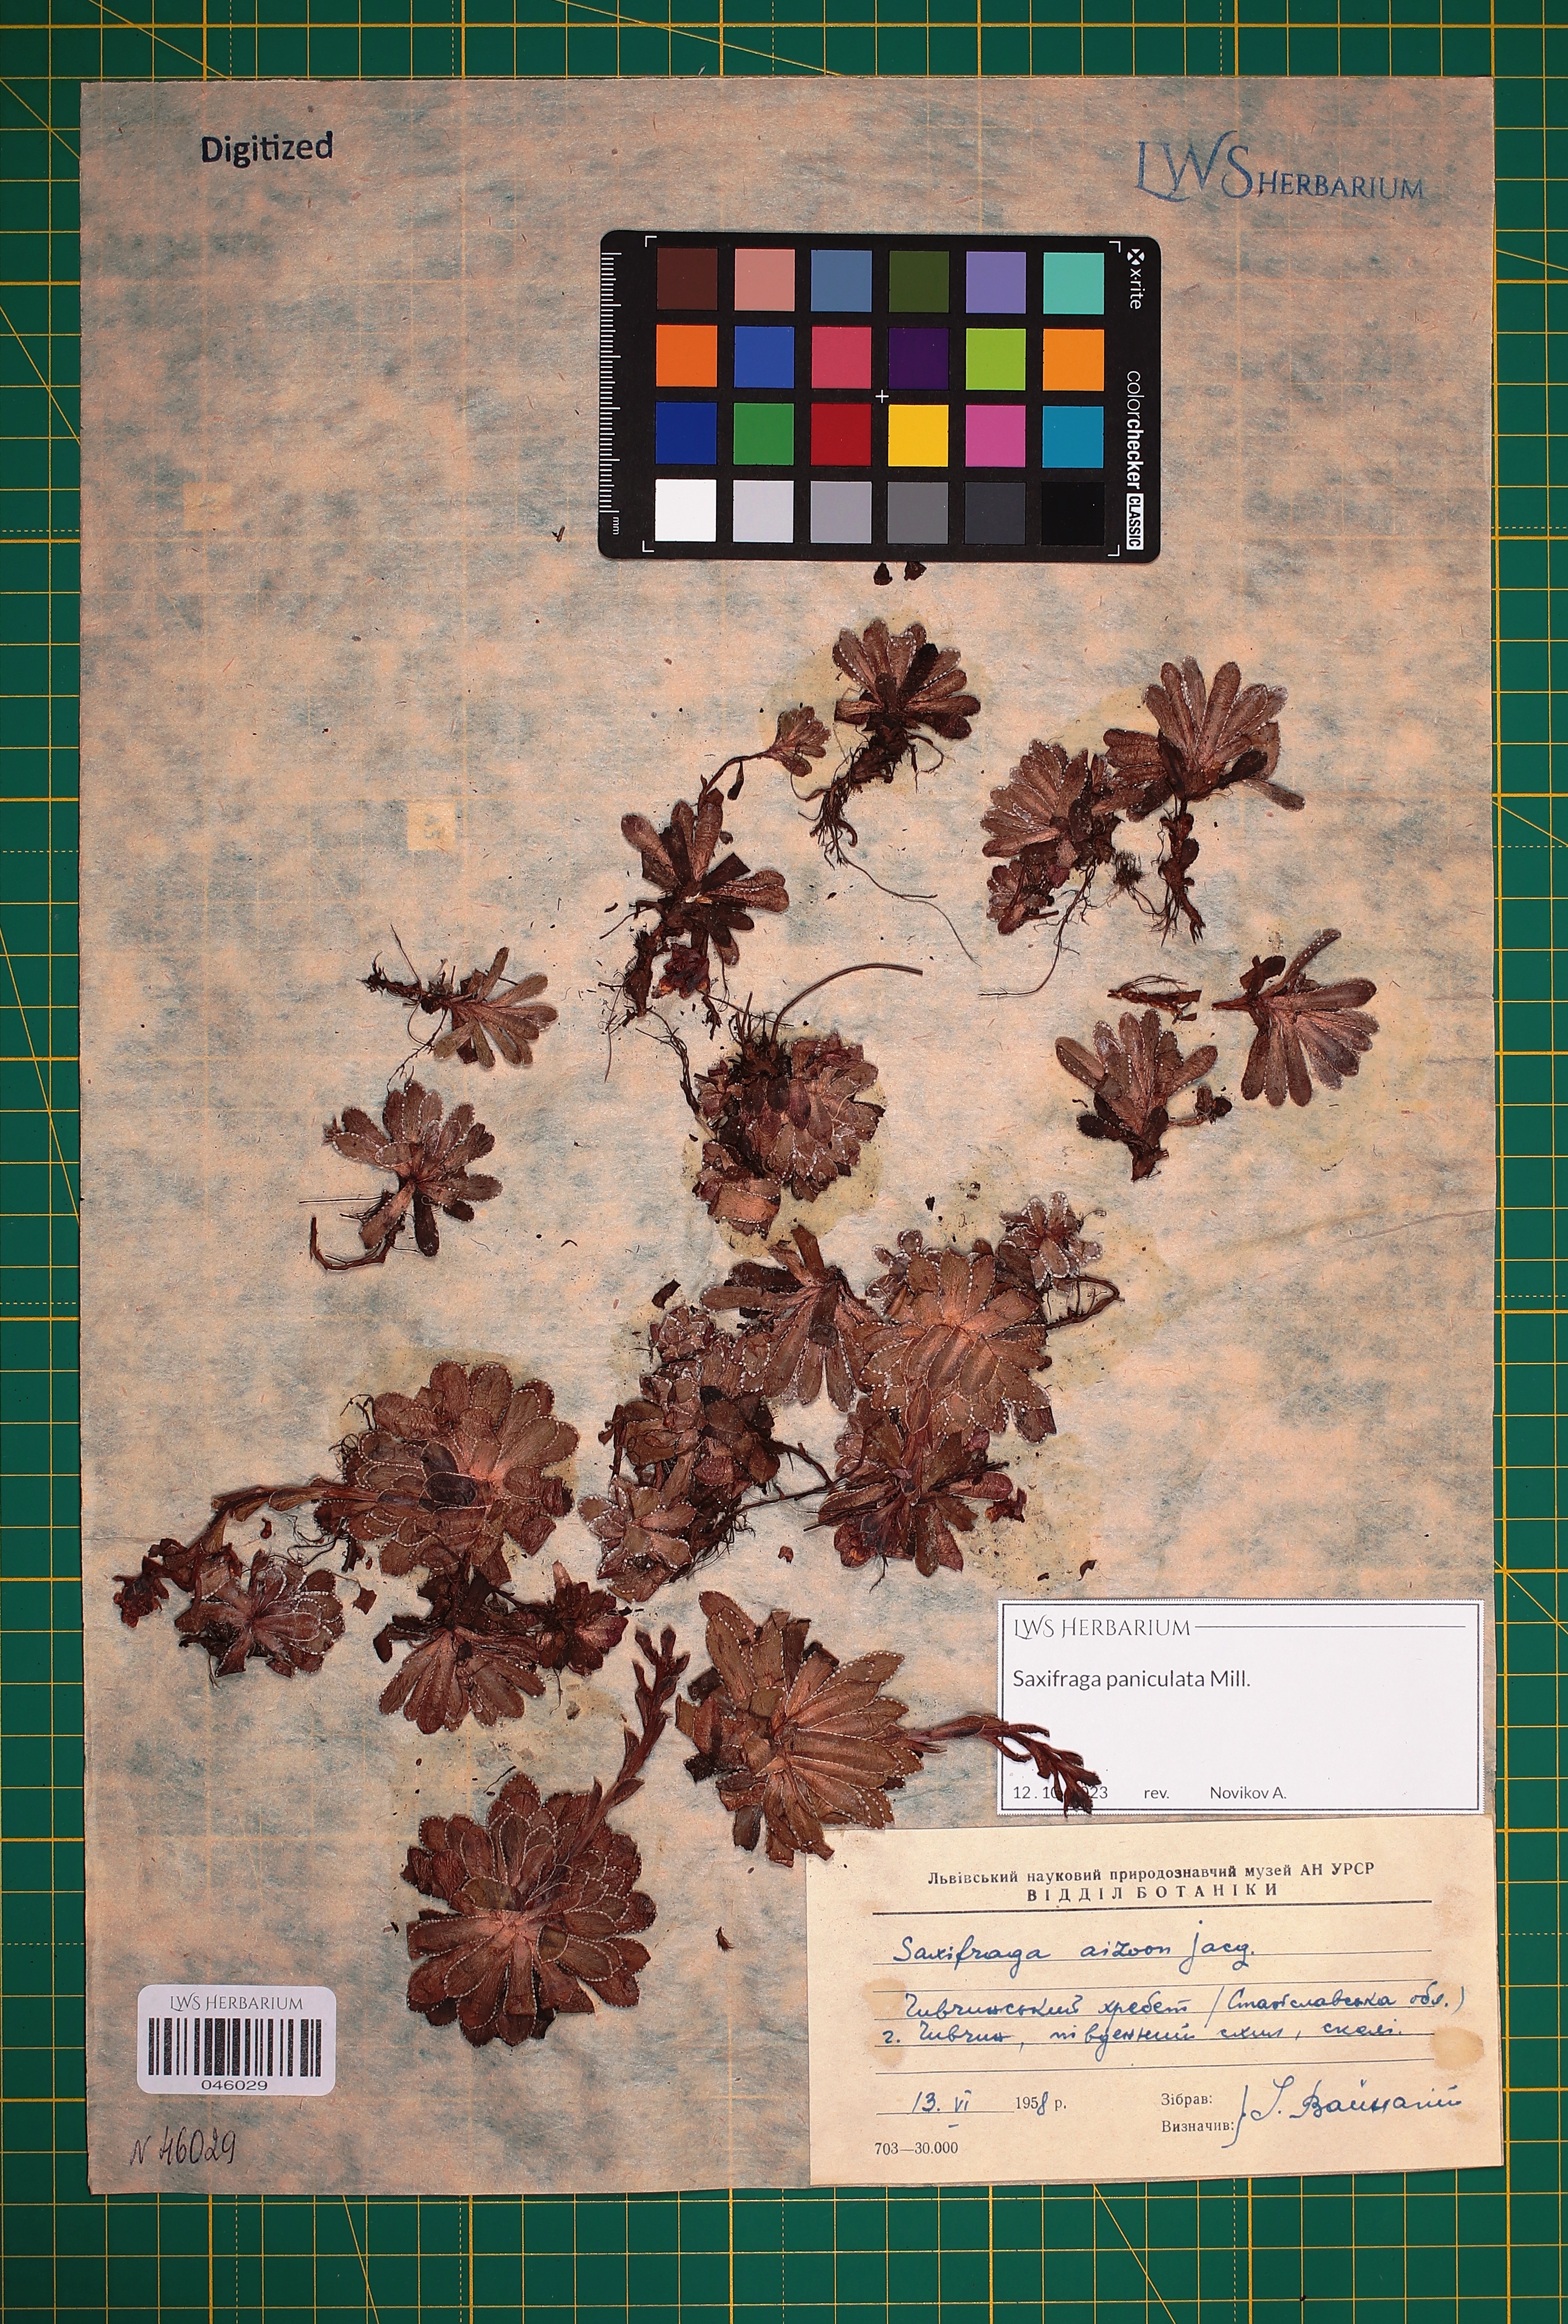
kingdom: Plantae
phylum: Tracheophyta
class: Magnoliopsida
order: Saxifragales
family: Saxifragaceae
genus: Saxifraga
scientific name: Saxifraga paniculata
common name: Livelong saxifrage
